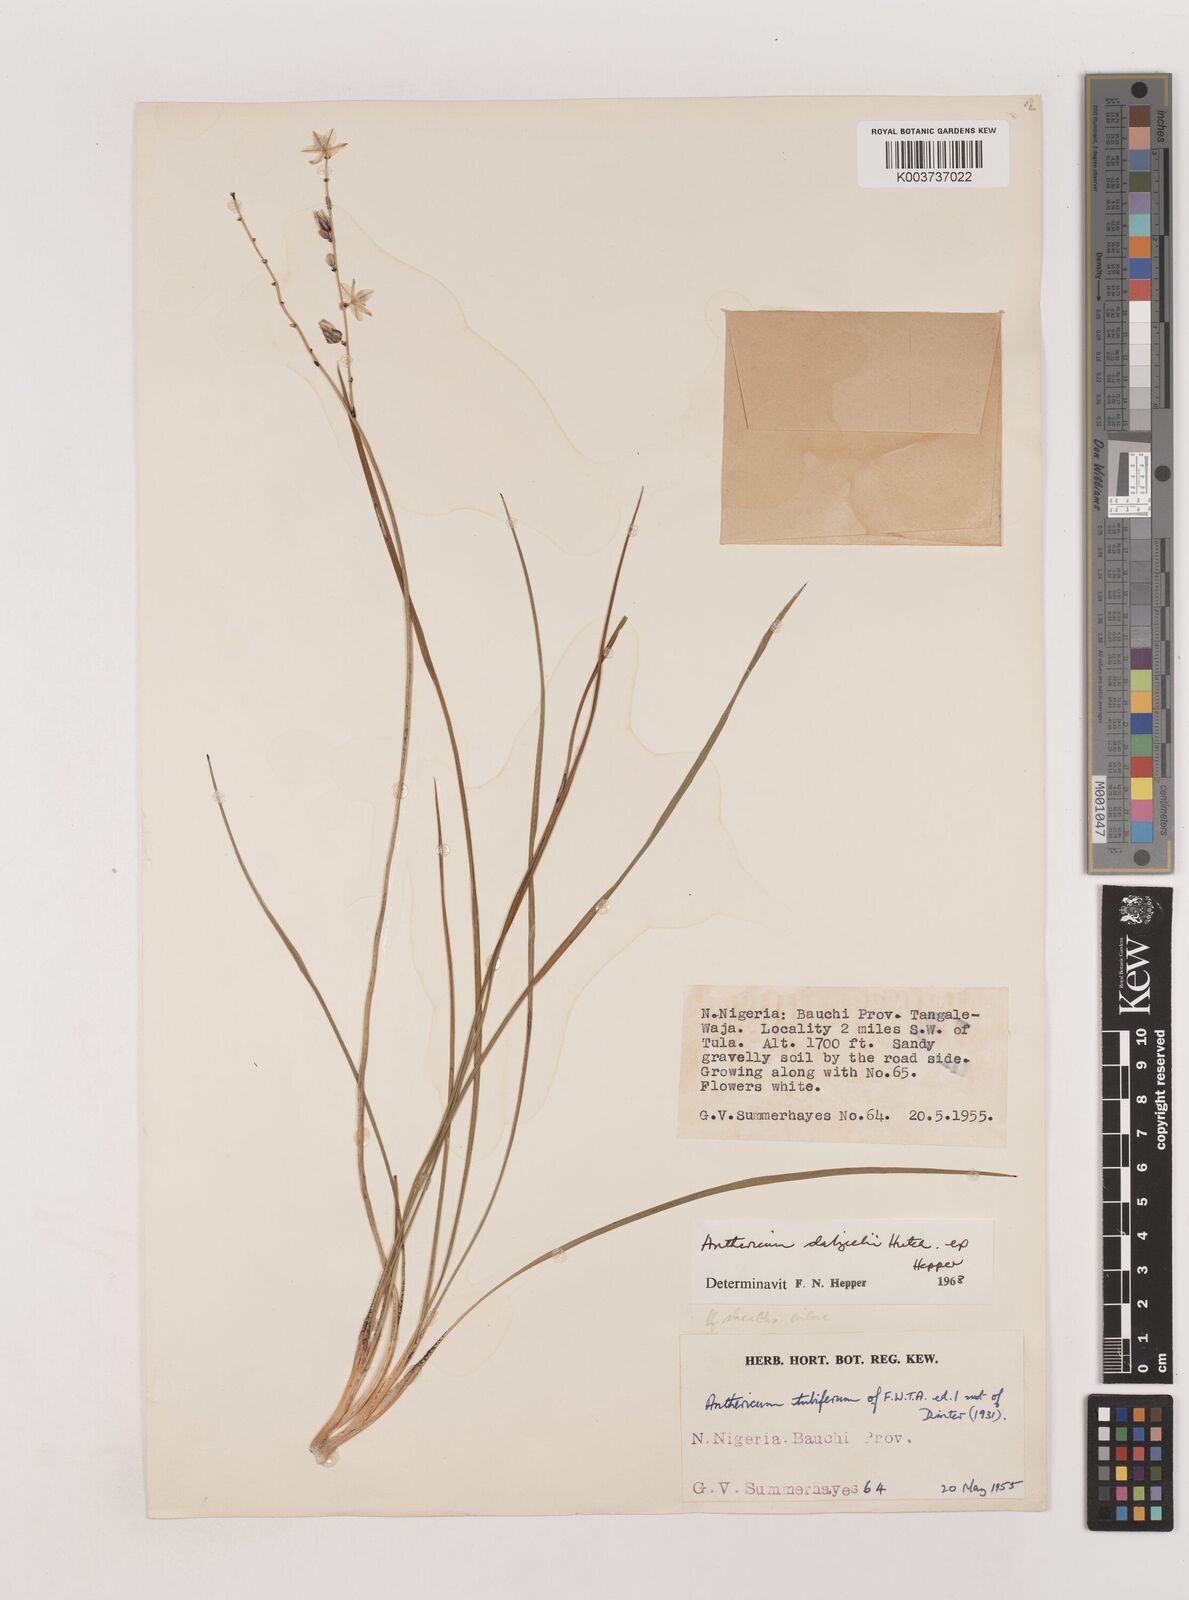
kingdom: Plantae
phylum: Tracheophyta
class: Liliopsida
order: Asparagales
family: Asparagaceae
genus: Chlorophytum
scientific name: Chlorophytum dalzielii
